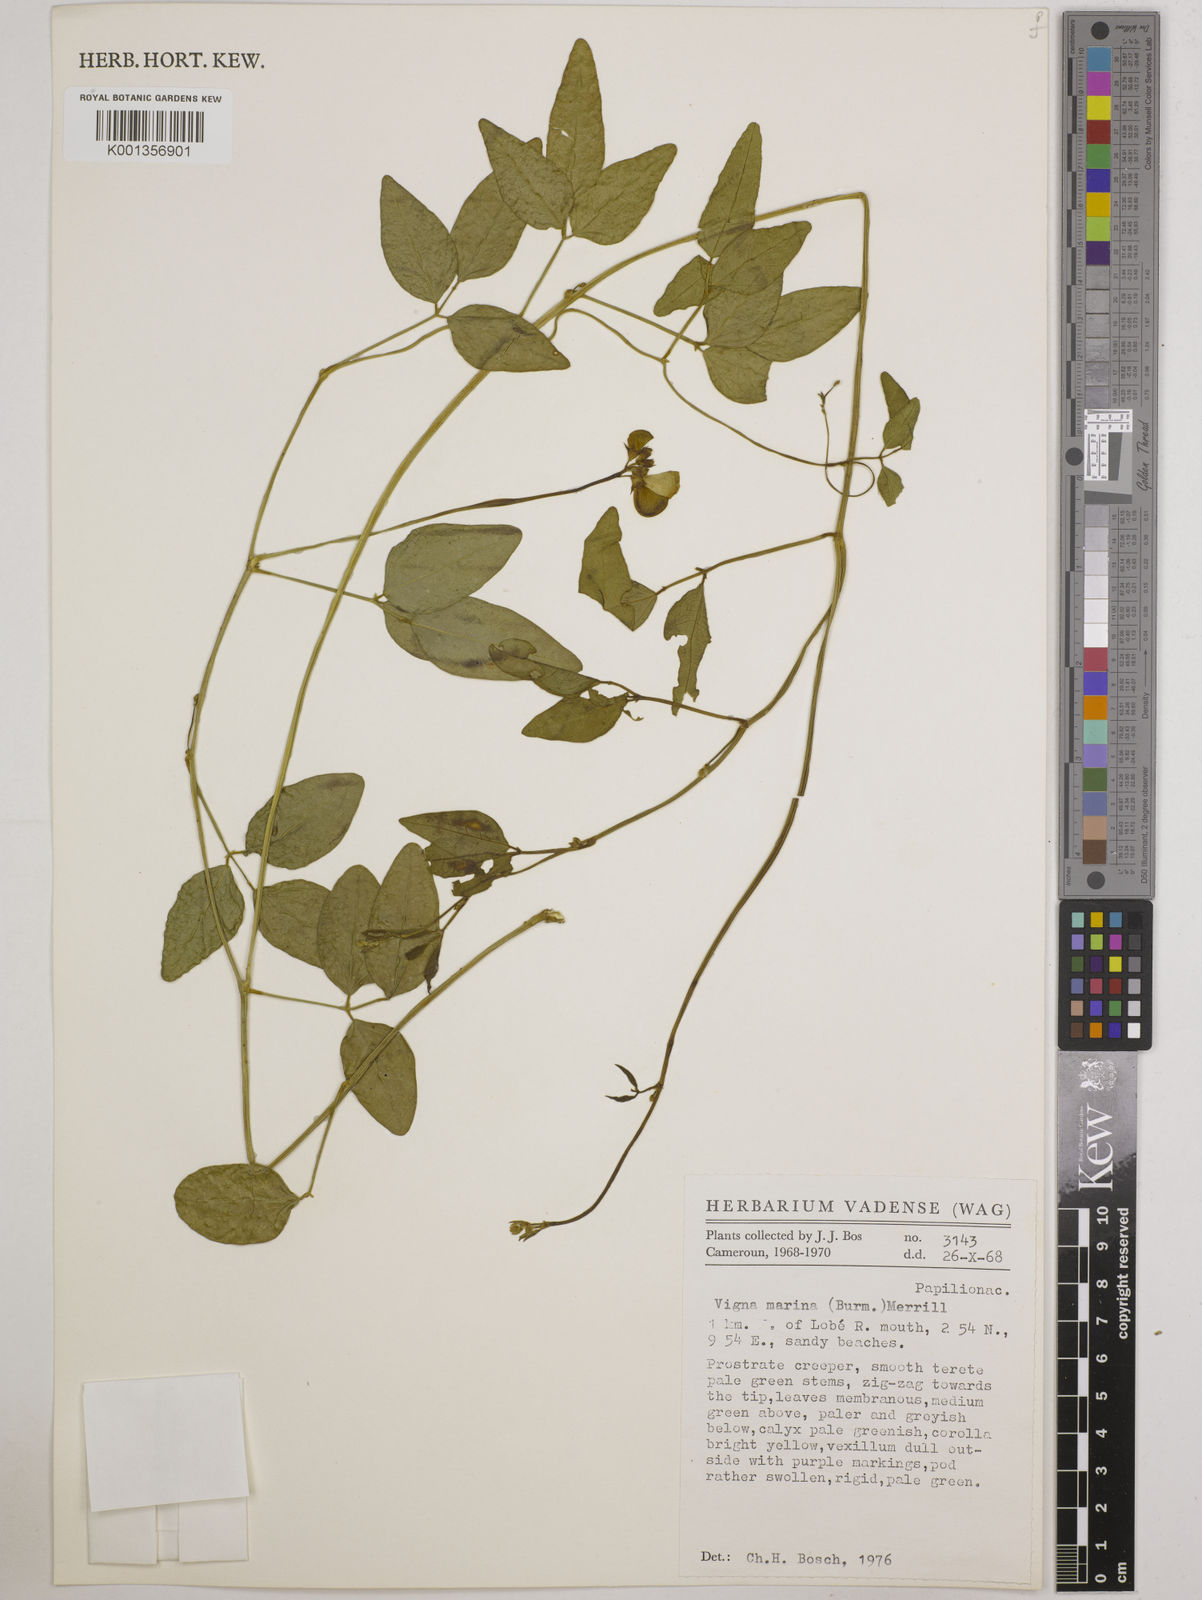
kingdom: Plantae
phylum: Tracheophyta
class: Magnoliopsida
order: Fabales
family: Fabaceae
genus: Vigna
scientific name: Vigna marina
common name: Dune-bean
